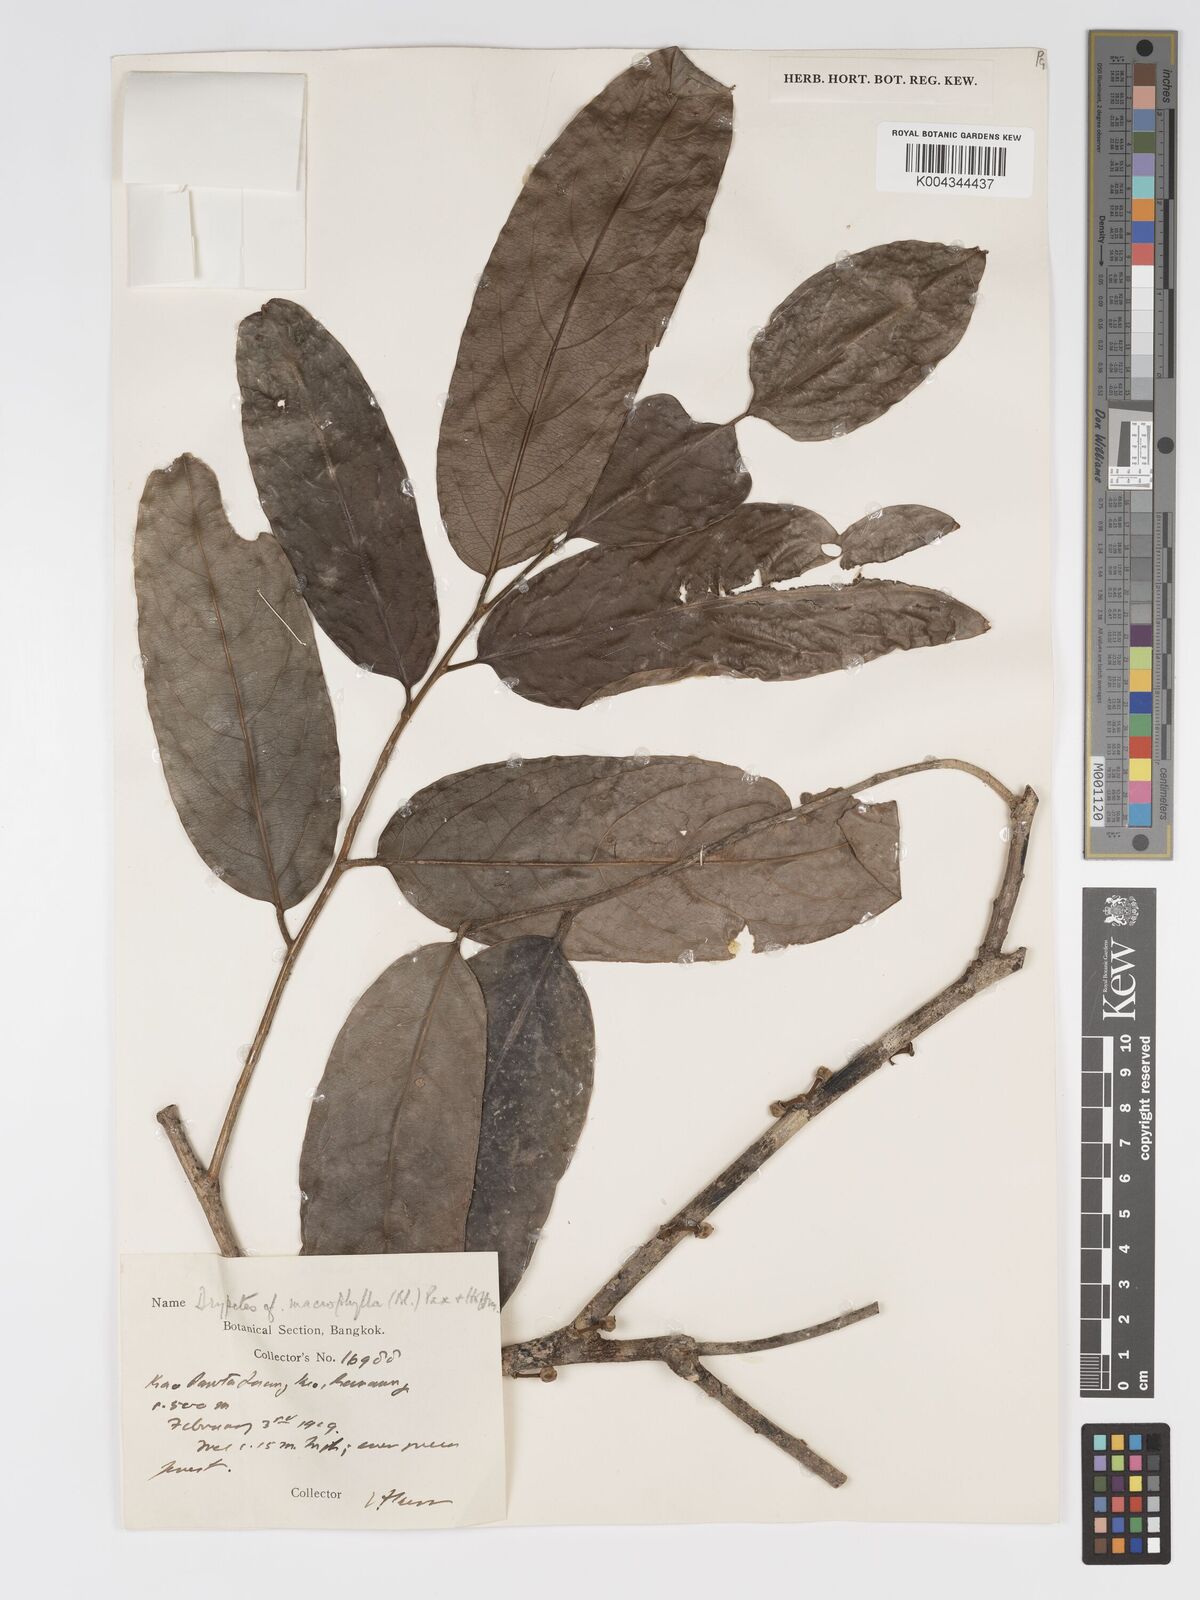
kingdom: Plantae
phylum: Tracheophyta
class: Magnoliopsida
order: Malpighiales
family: Putranjivaceae
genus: Drypetes
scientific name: Drypetes longifolia
